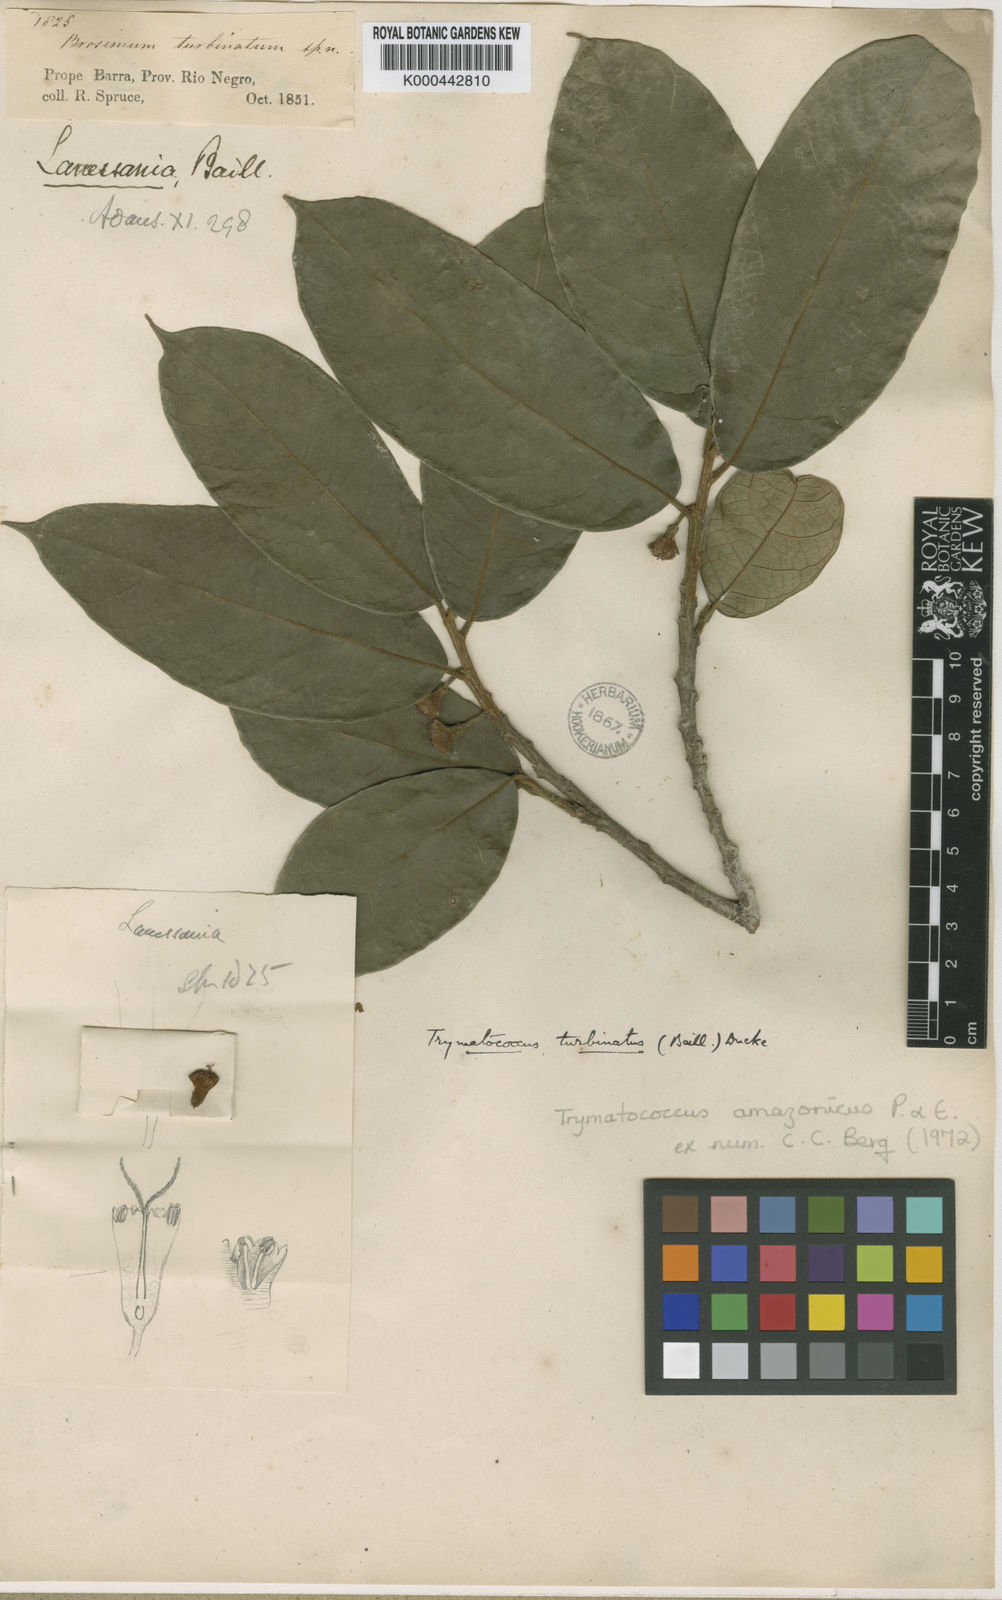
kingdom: Plantae
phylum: Tracheophyta
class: Magnoliopsida
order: Rosales
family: Moraceae
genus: Brosimum
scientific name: Brosimum amazonicum
